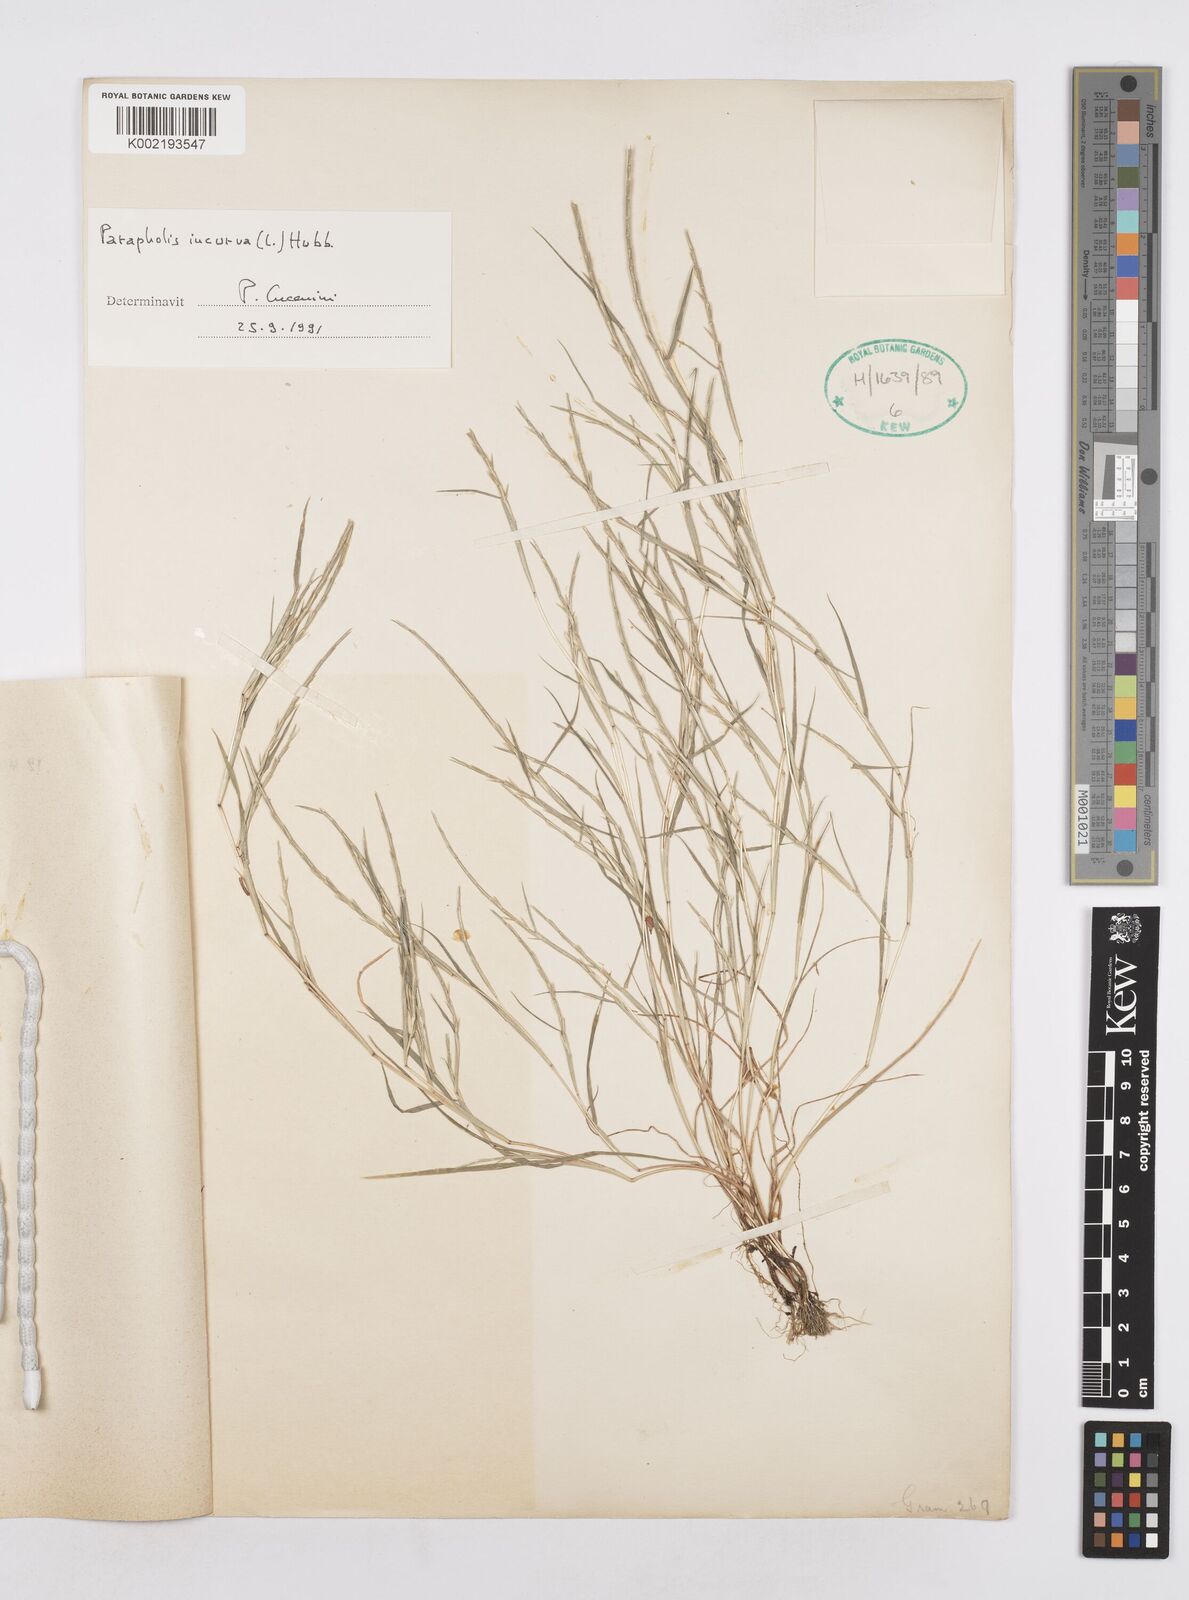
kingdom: Plantae
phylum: Tracheophyta
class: Liliopsida
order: Poales
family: Poaceae
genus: Parapholis
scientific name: Parapholis incurva
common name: Curved sicklegrass
